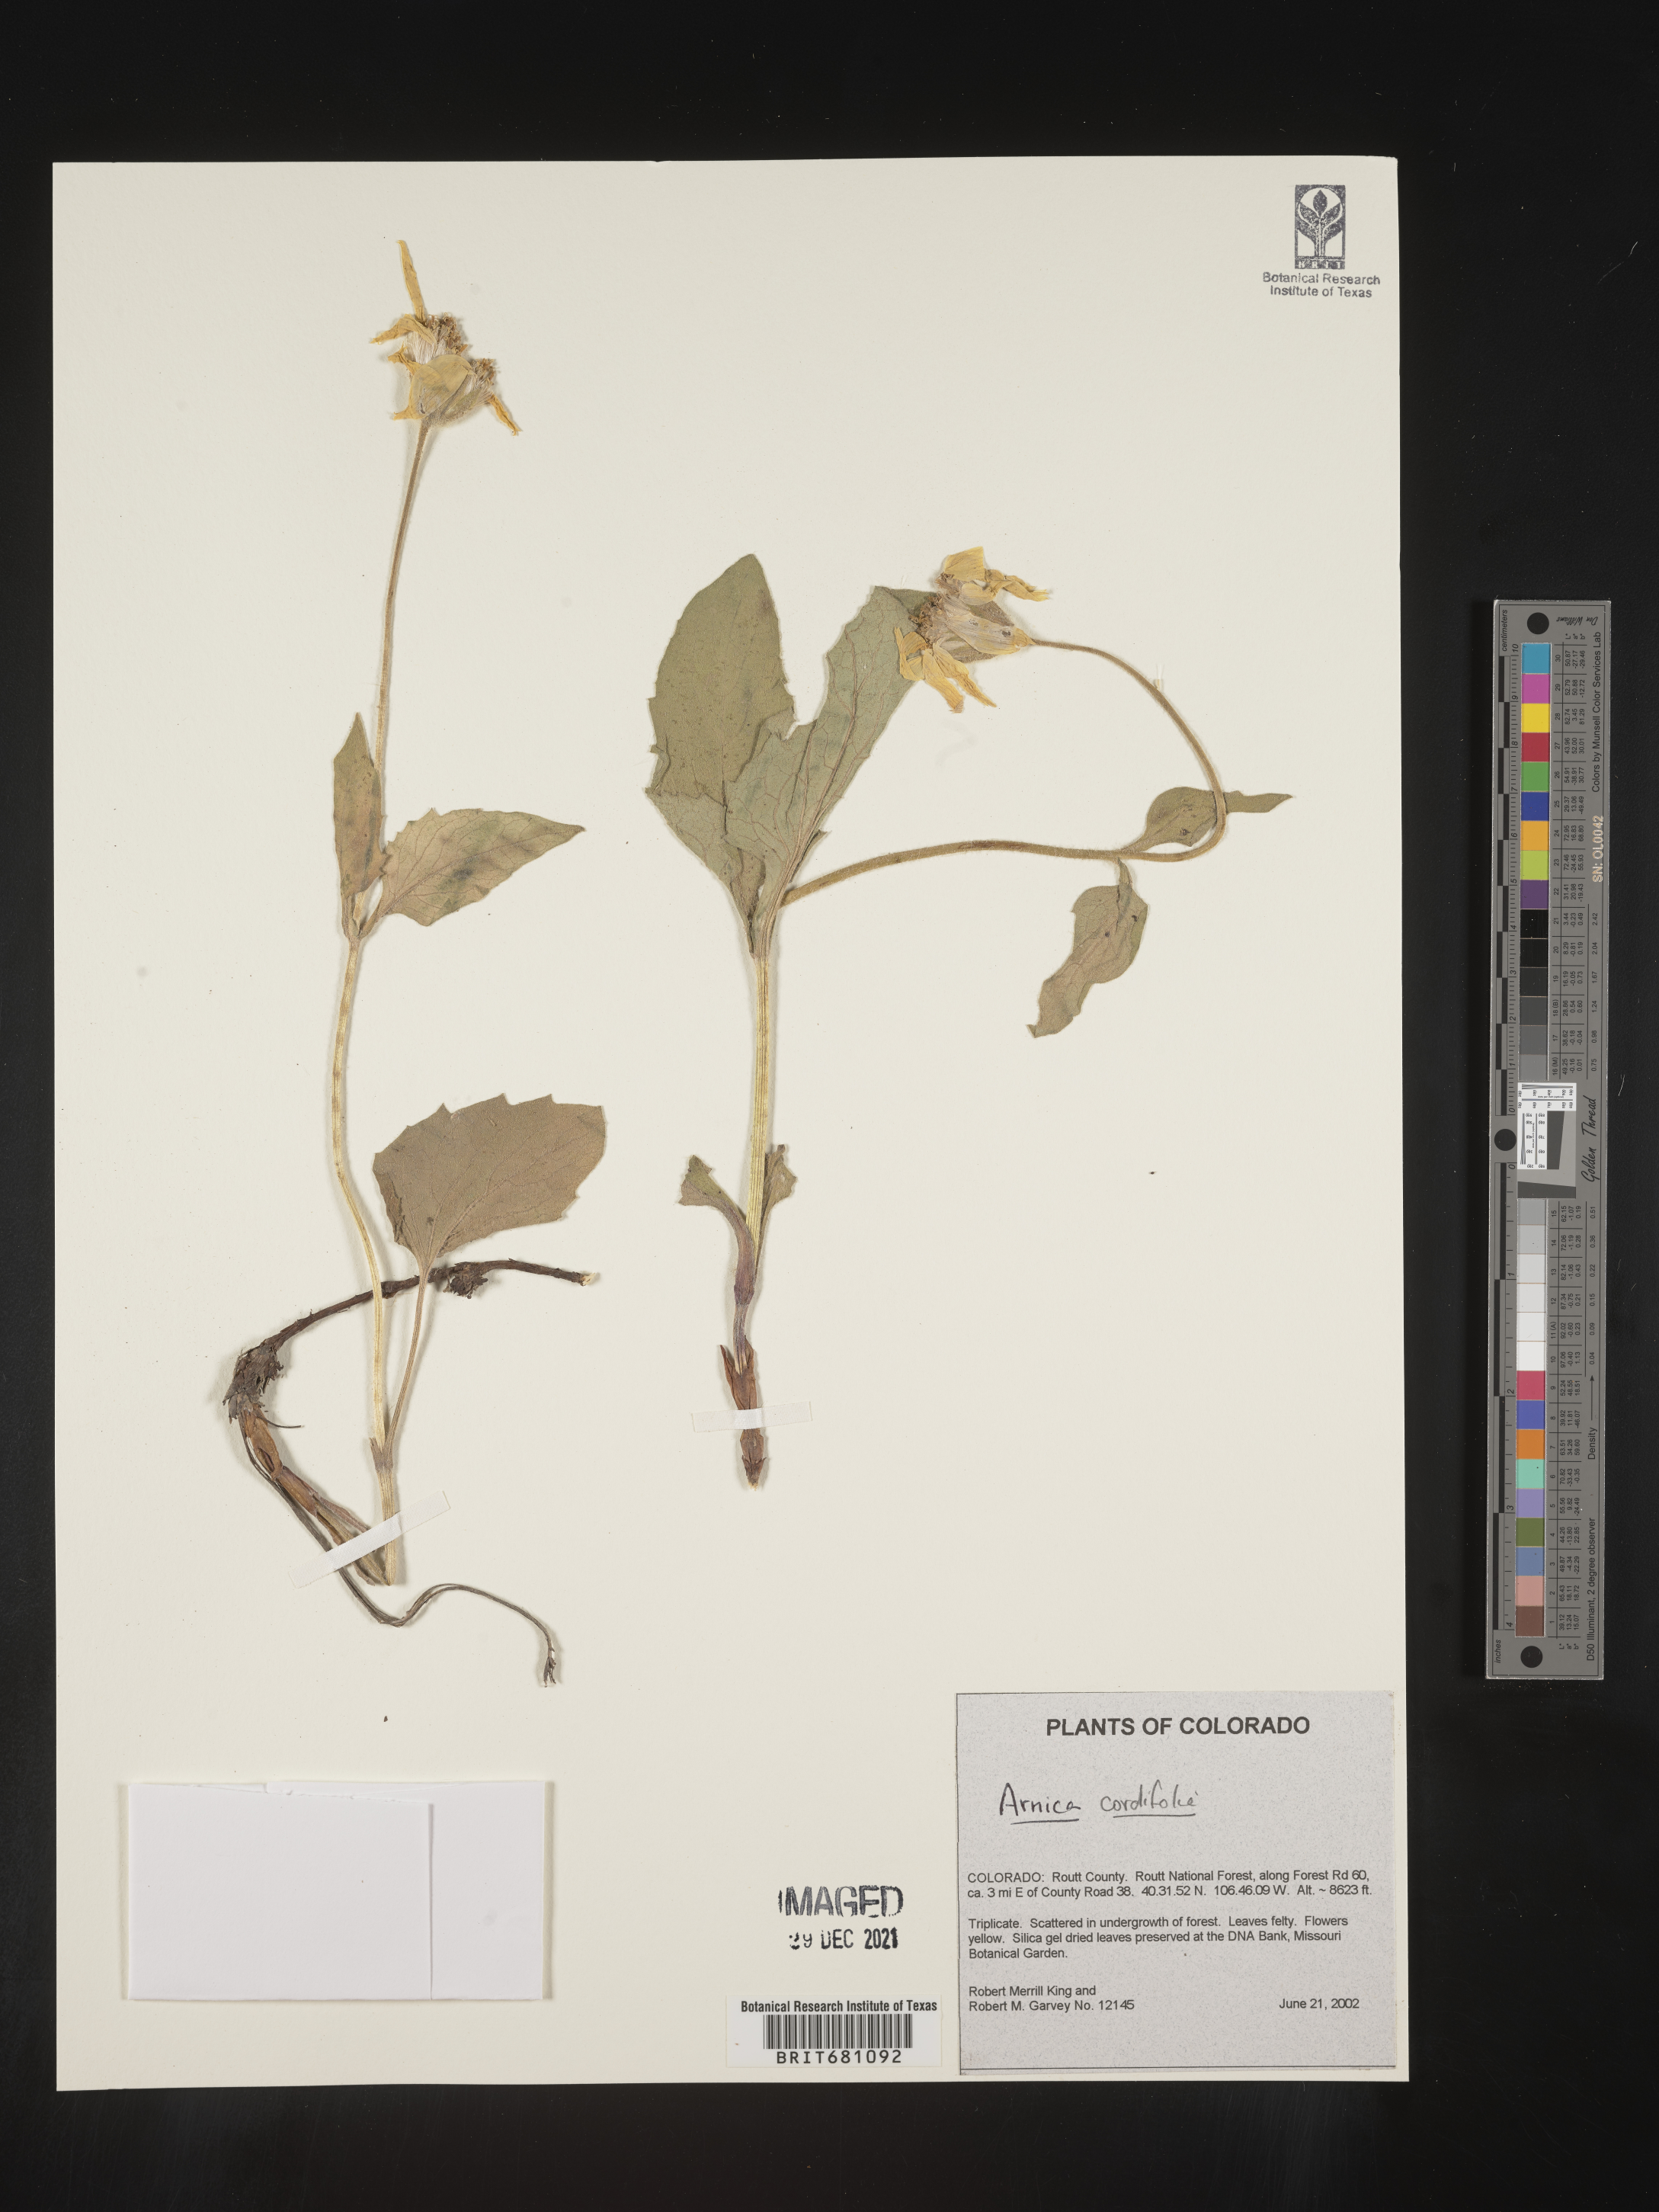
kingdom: Plantae
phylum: Tracheophyta
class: Magnoliopsida
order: Asterales
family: Asteraceae
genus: Arnica
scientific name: Arnica cordifolia
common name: Heart-leaf arnica
